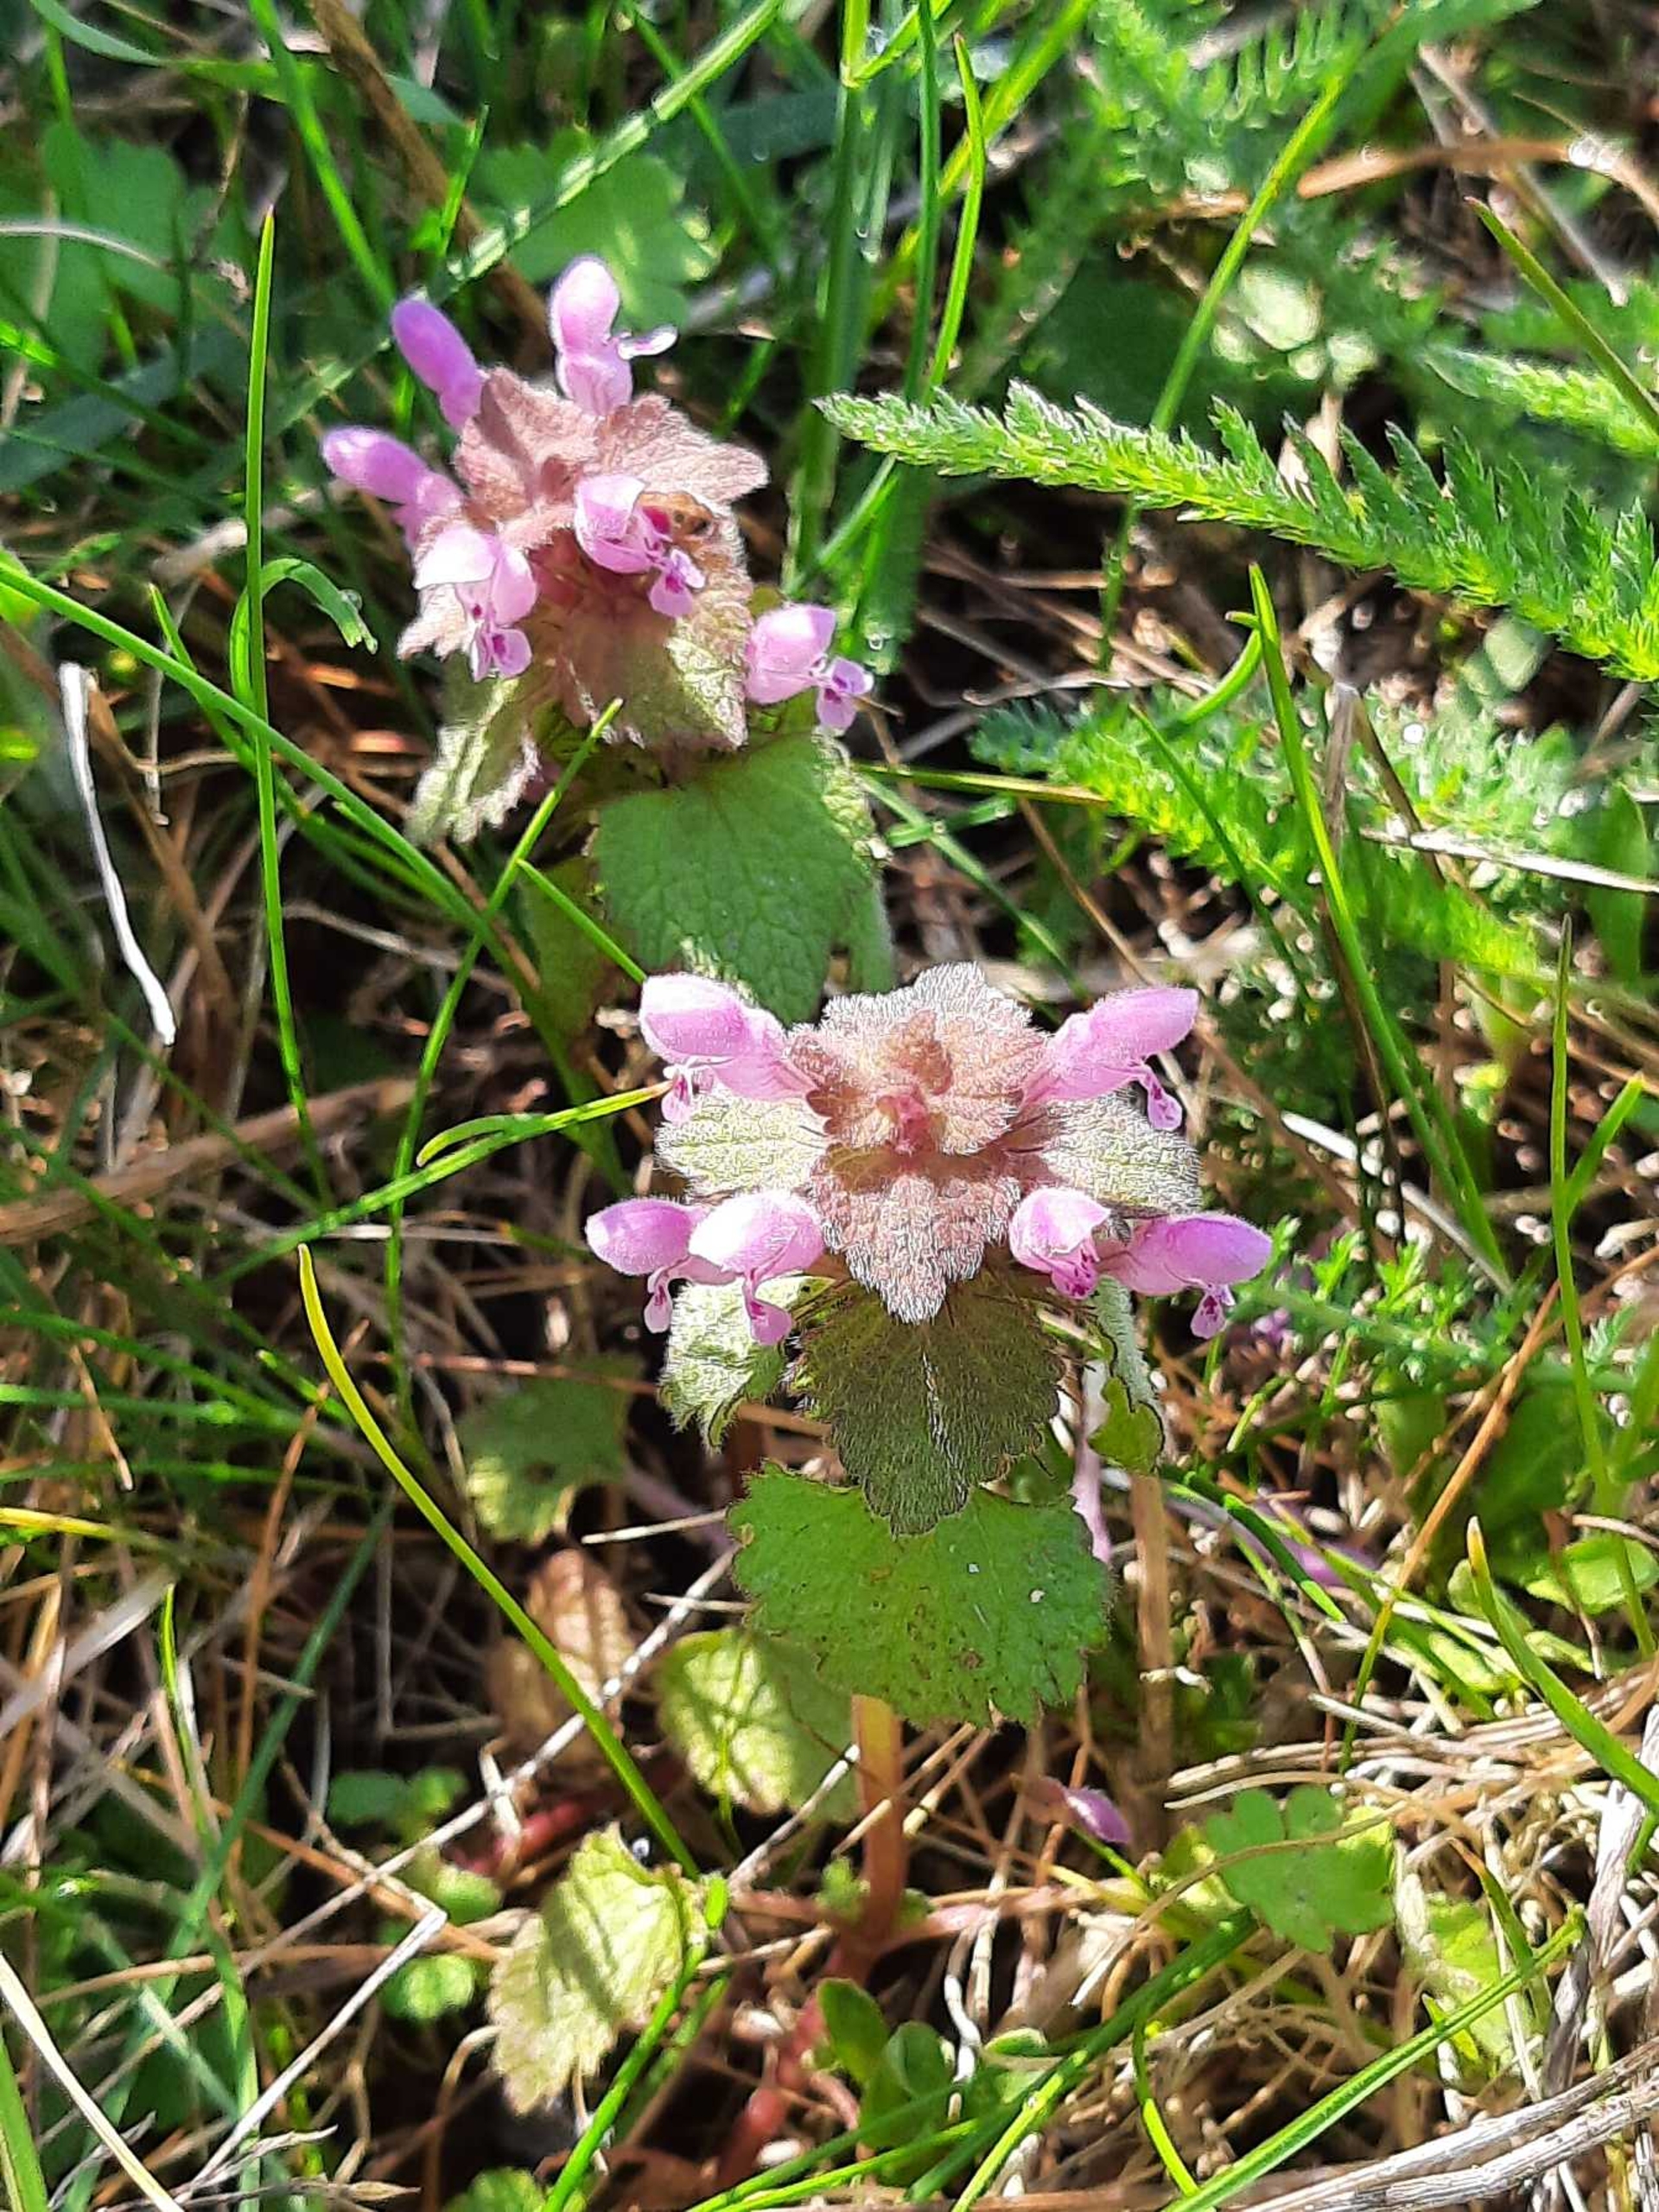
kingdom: Plantae
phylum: Tracheophyta
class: Magnoliopsida
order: Lamiales
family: Lamiaceae
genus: Lamium
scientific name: Lamium purpureum
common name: Rød tvetand
